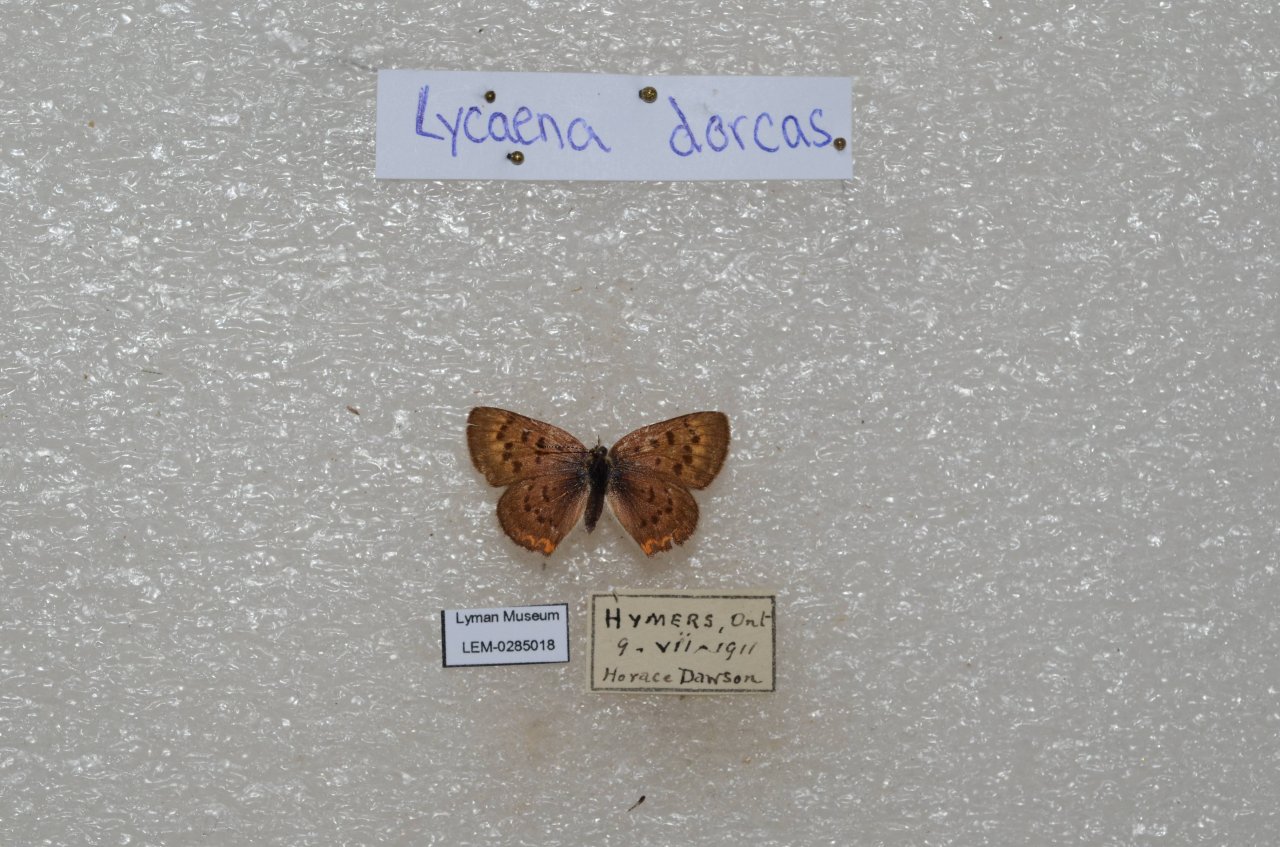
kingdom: Animalia
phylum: Arthropoda
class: Insecta
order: Lepidoptera
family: Lycaenidae
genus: Epidemia
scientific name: Epidemia dorcas
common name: Dorcas Copper
